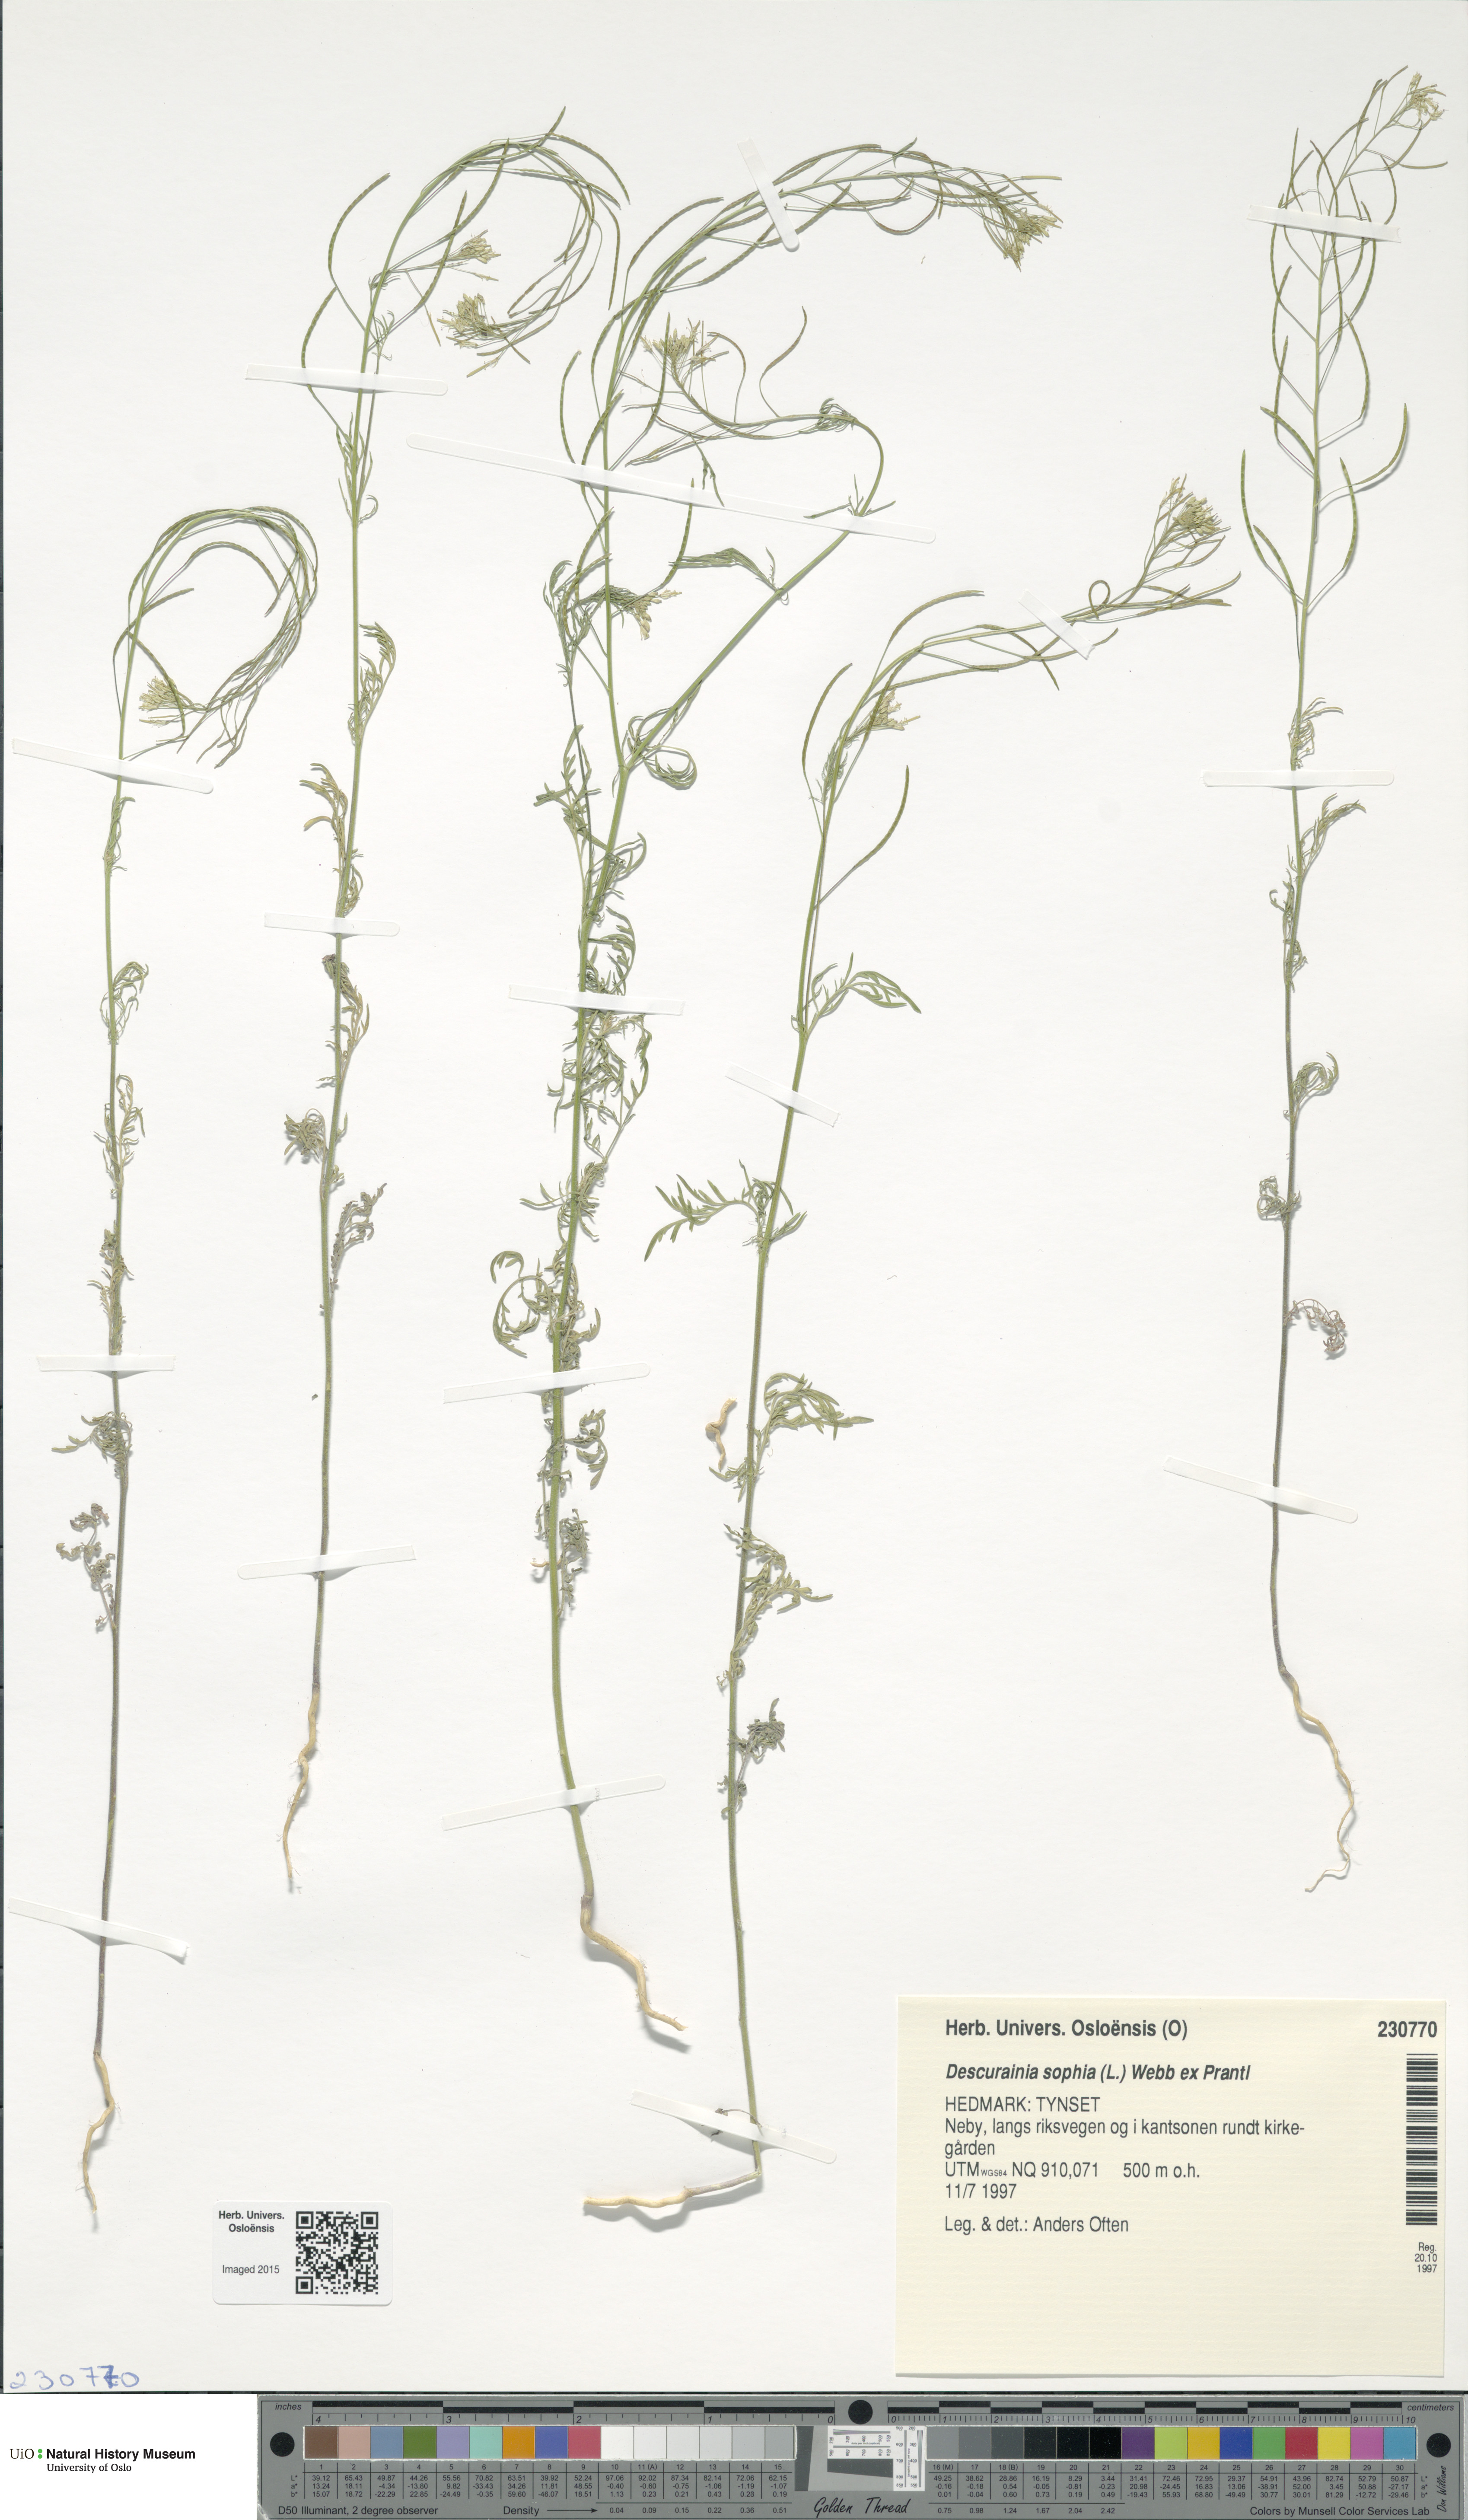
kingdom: Plantae
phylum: Tracheophyta
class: Magnoliopsida
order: Brassicales
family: Brassicaceae
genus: Descurainia
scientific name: Descurainia sophia
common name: Flixweed
